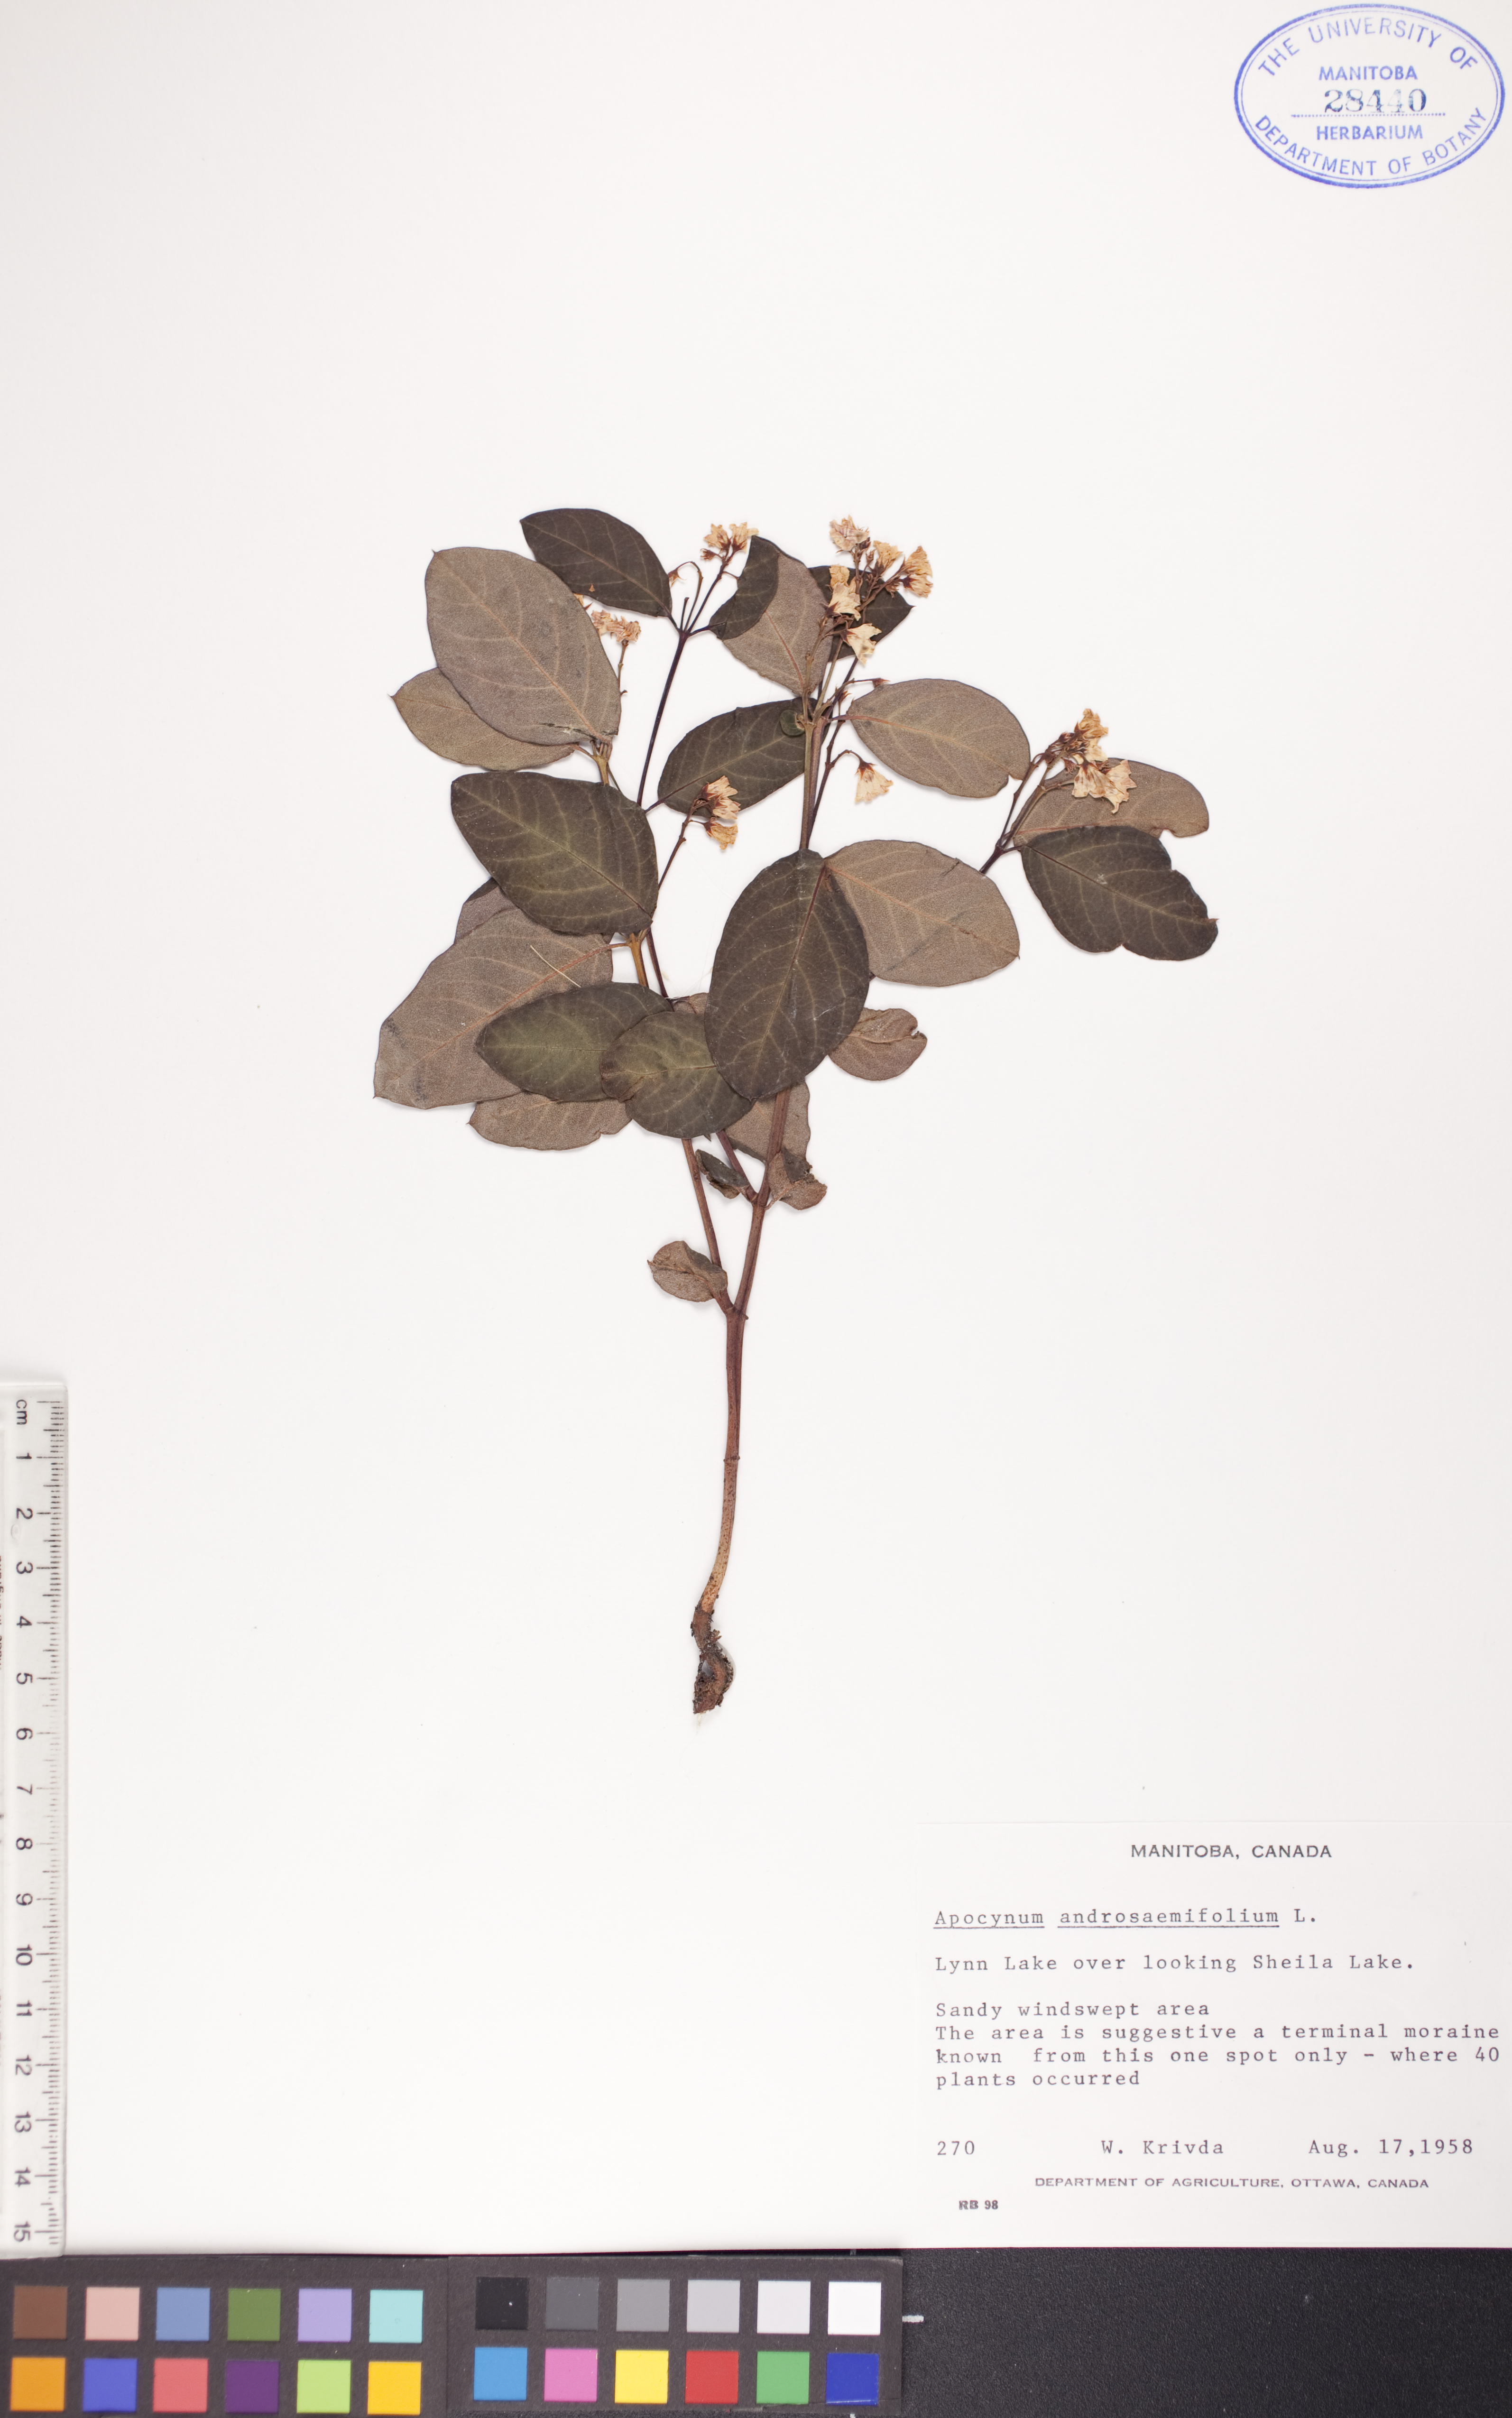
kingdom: Plantae
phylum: Tracheophyta
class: Magnoliopsida
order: Gentianales
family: Apocynaceae
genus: Apocynum
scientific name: Apocynum androsaemifolium
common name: Spreading dogbane
